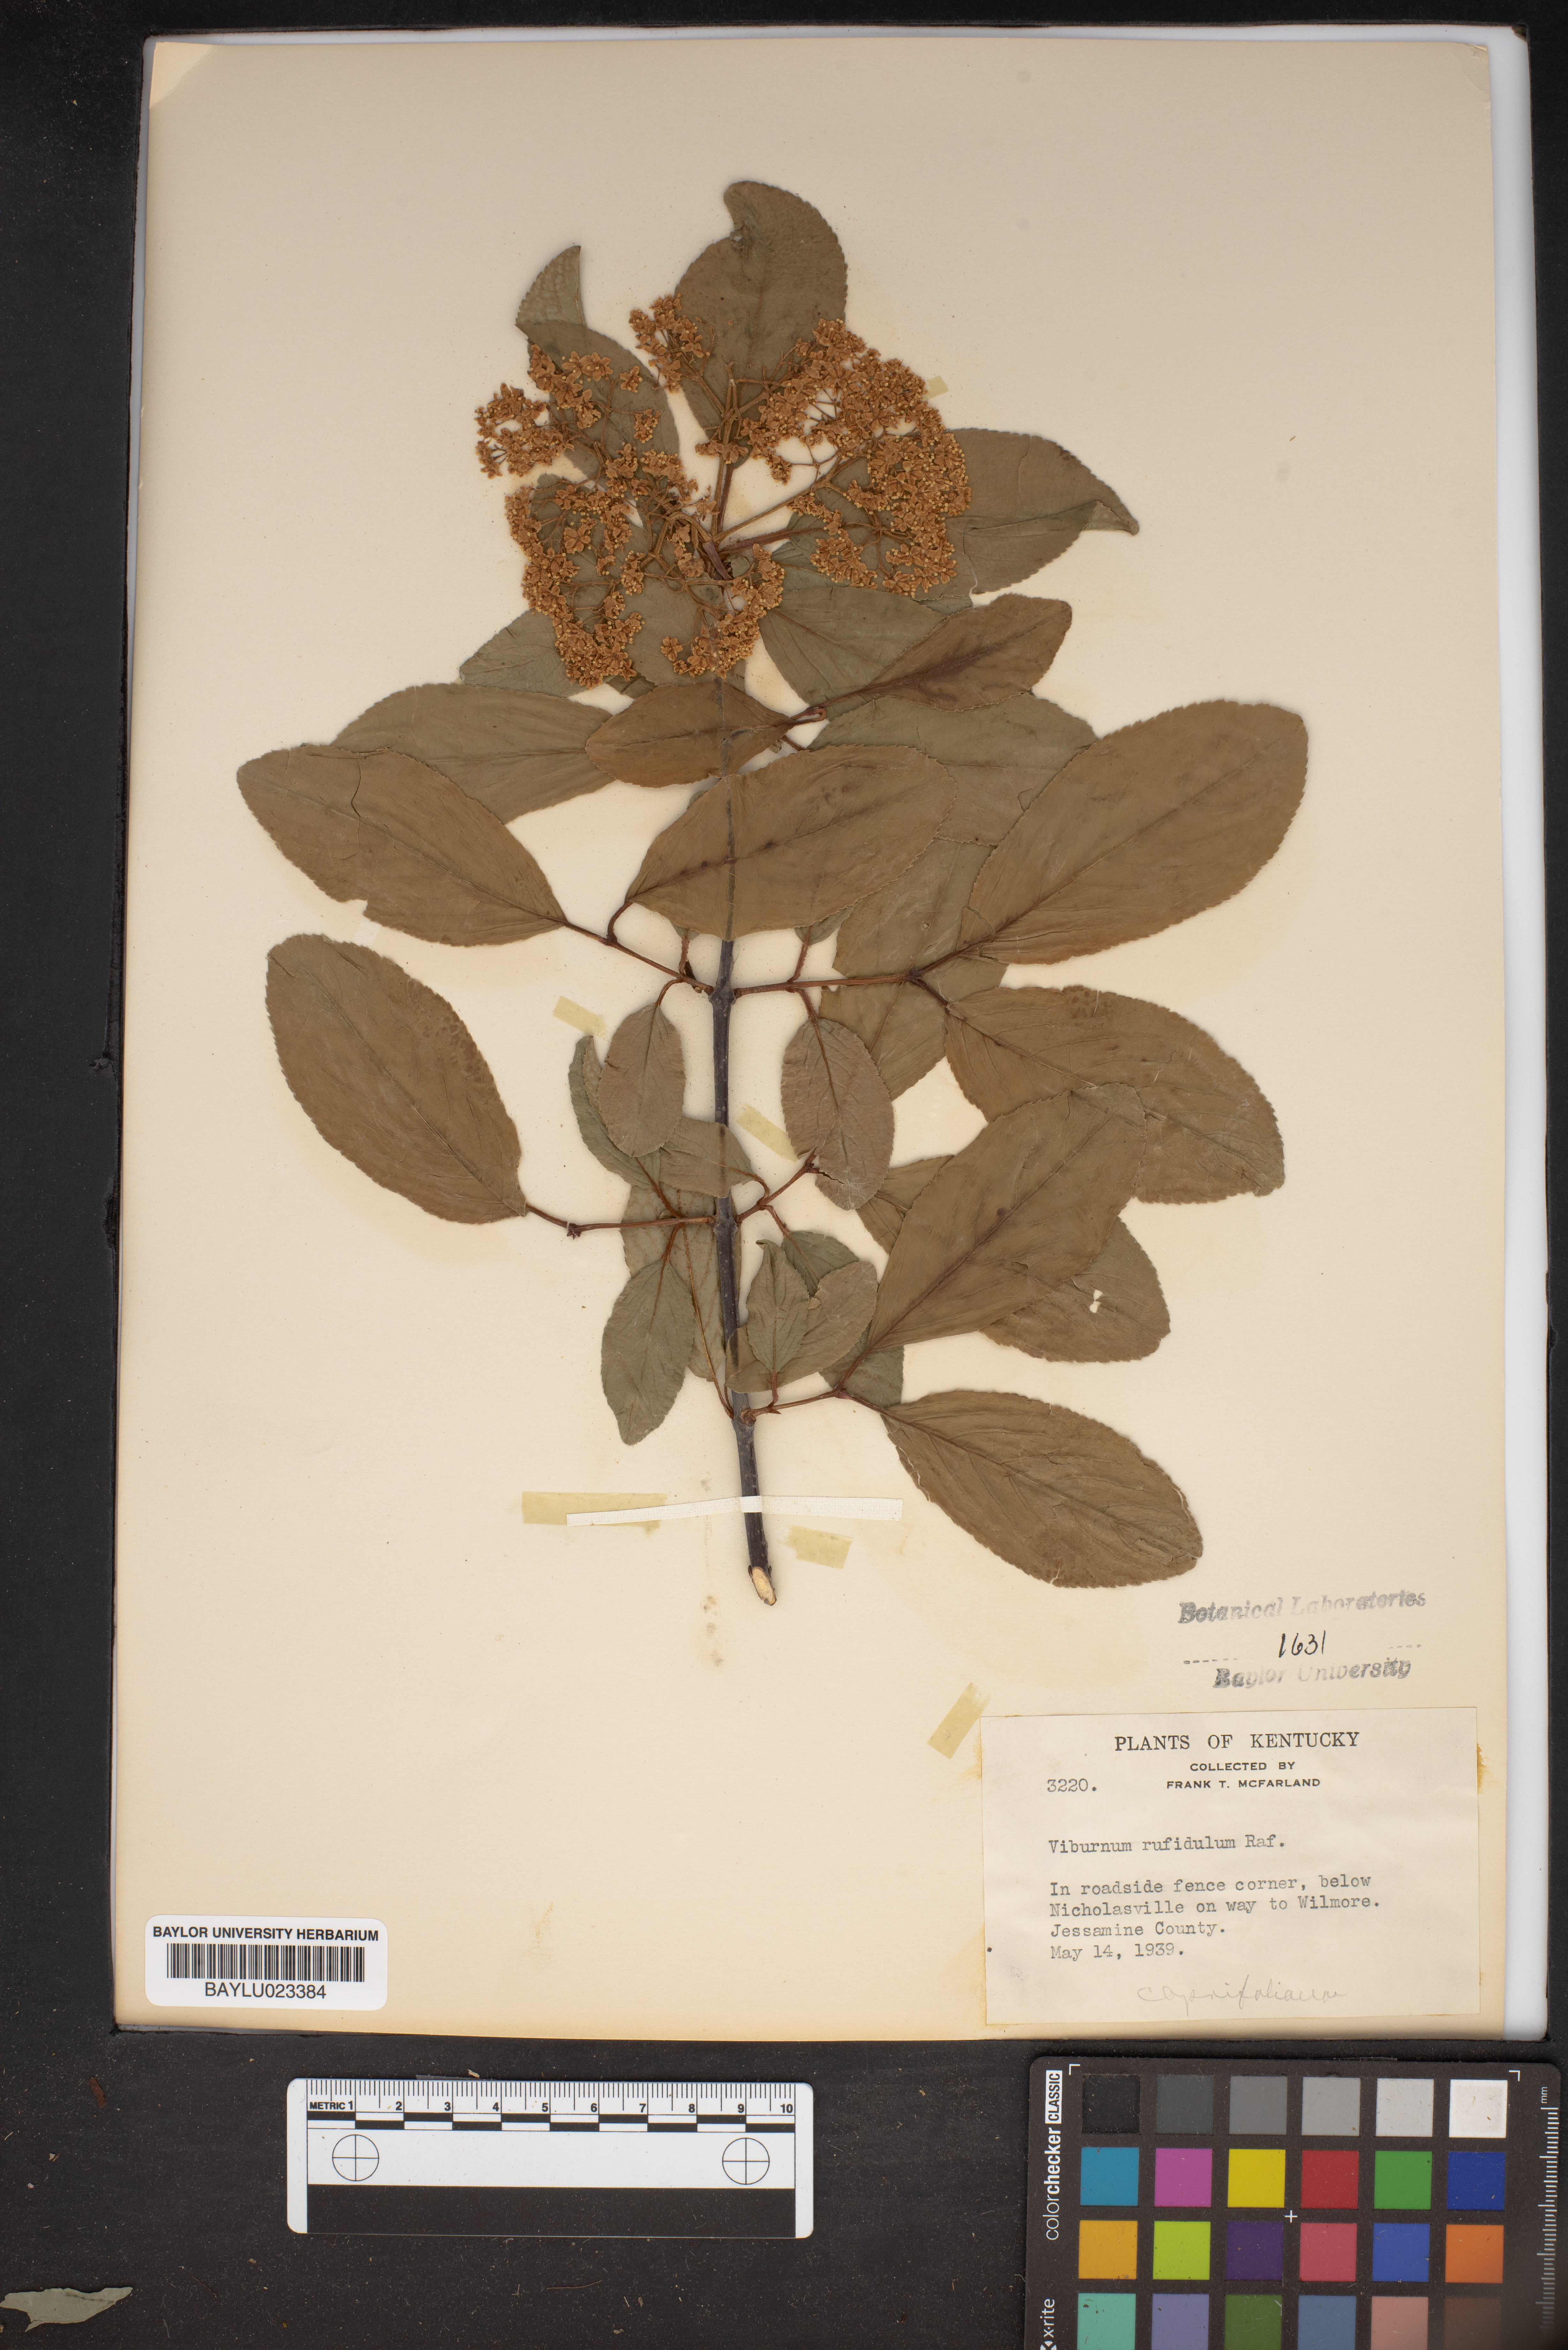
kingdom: Plantae
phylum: Tracheophyta
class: Magnoliopsida
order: Dipsacales
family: Viburnaceae
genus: Viburnum
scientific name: Viburnum rufidulum
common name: Blue haw
